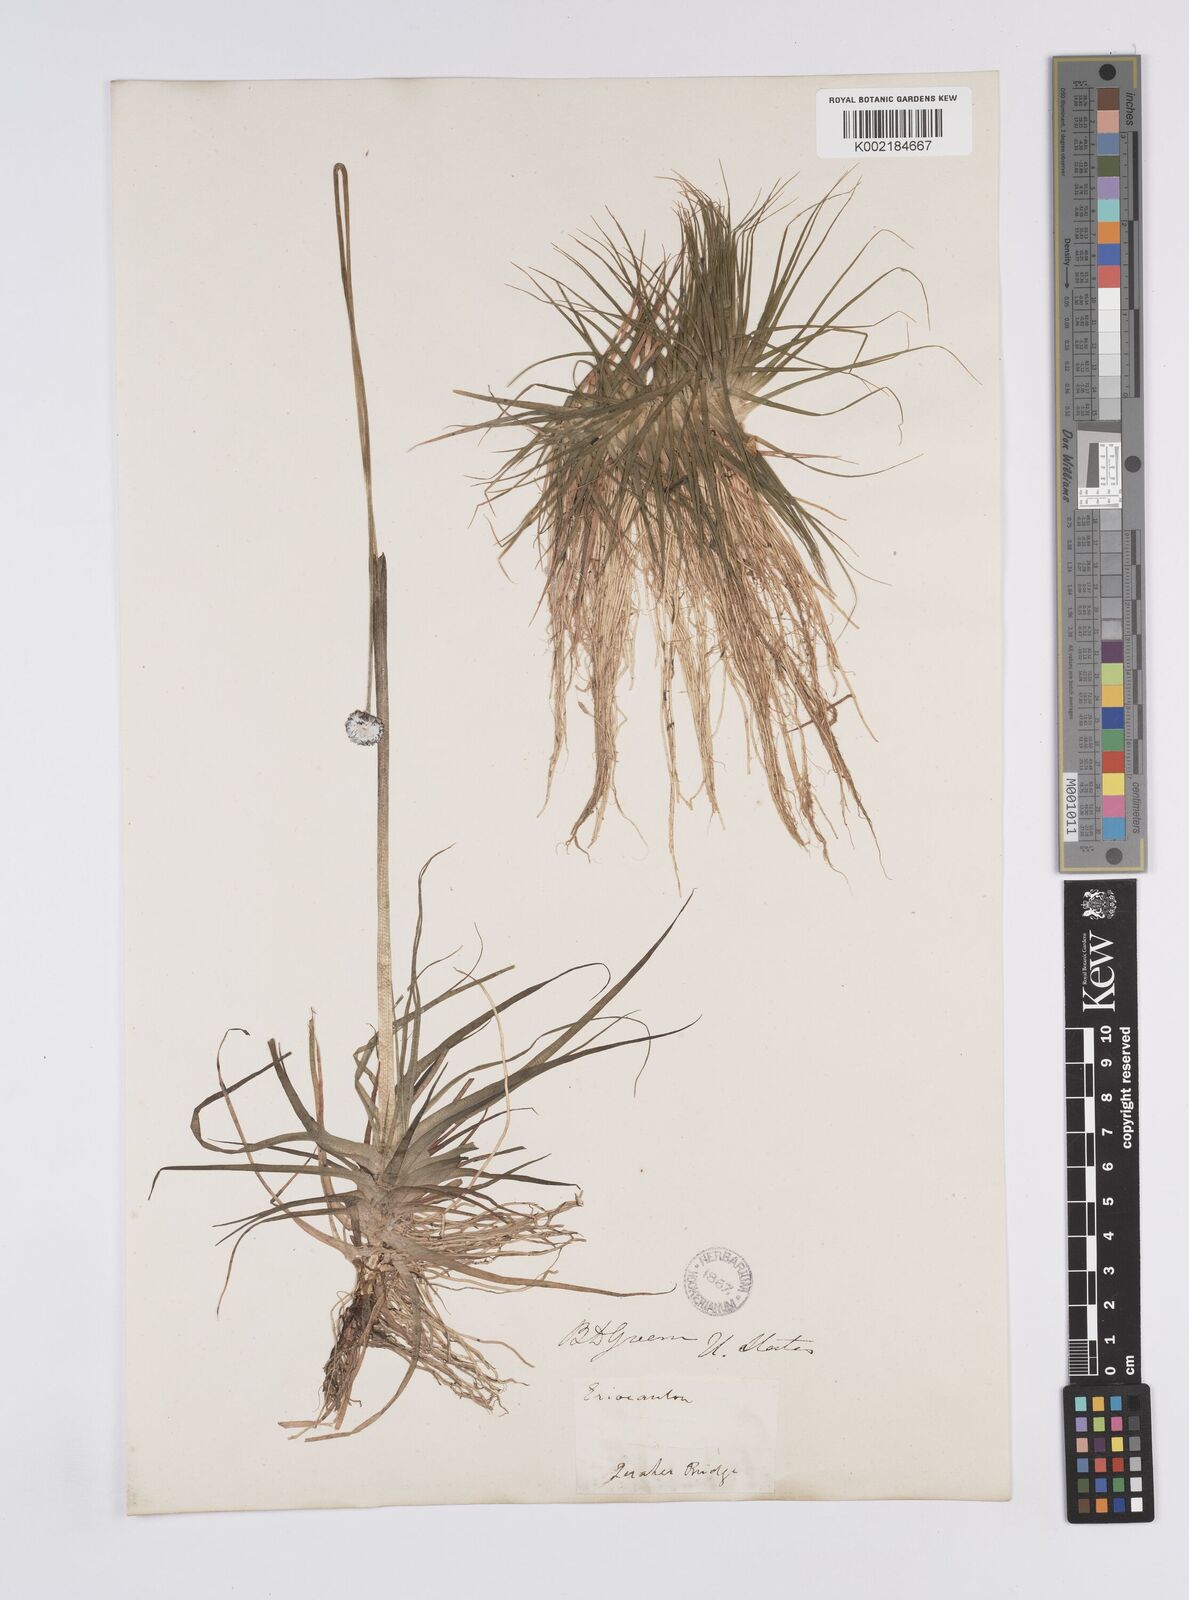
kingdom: Plantae
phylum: Tracheophyta
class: Liliopsida
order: Poales
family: Eriocaulaceae
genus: Eriocaulon
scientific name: Eriocaulon compressum
